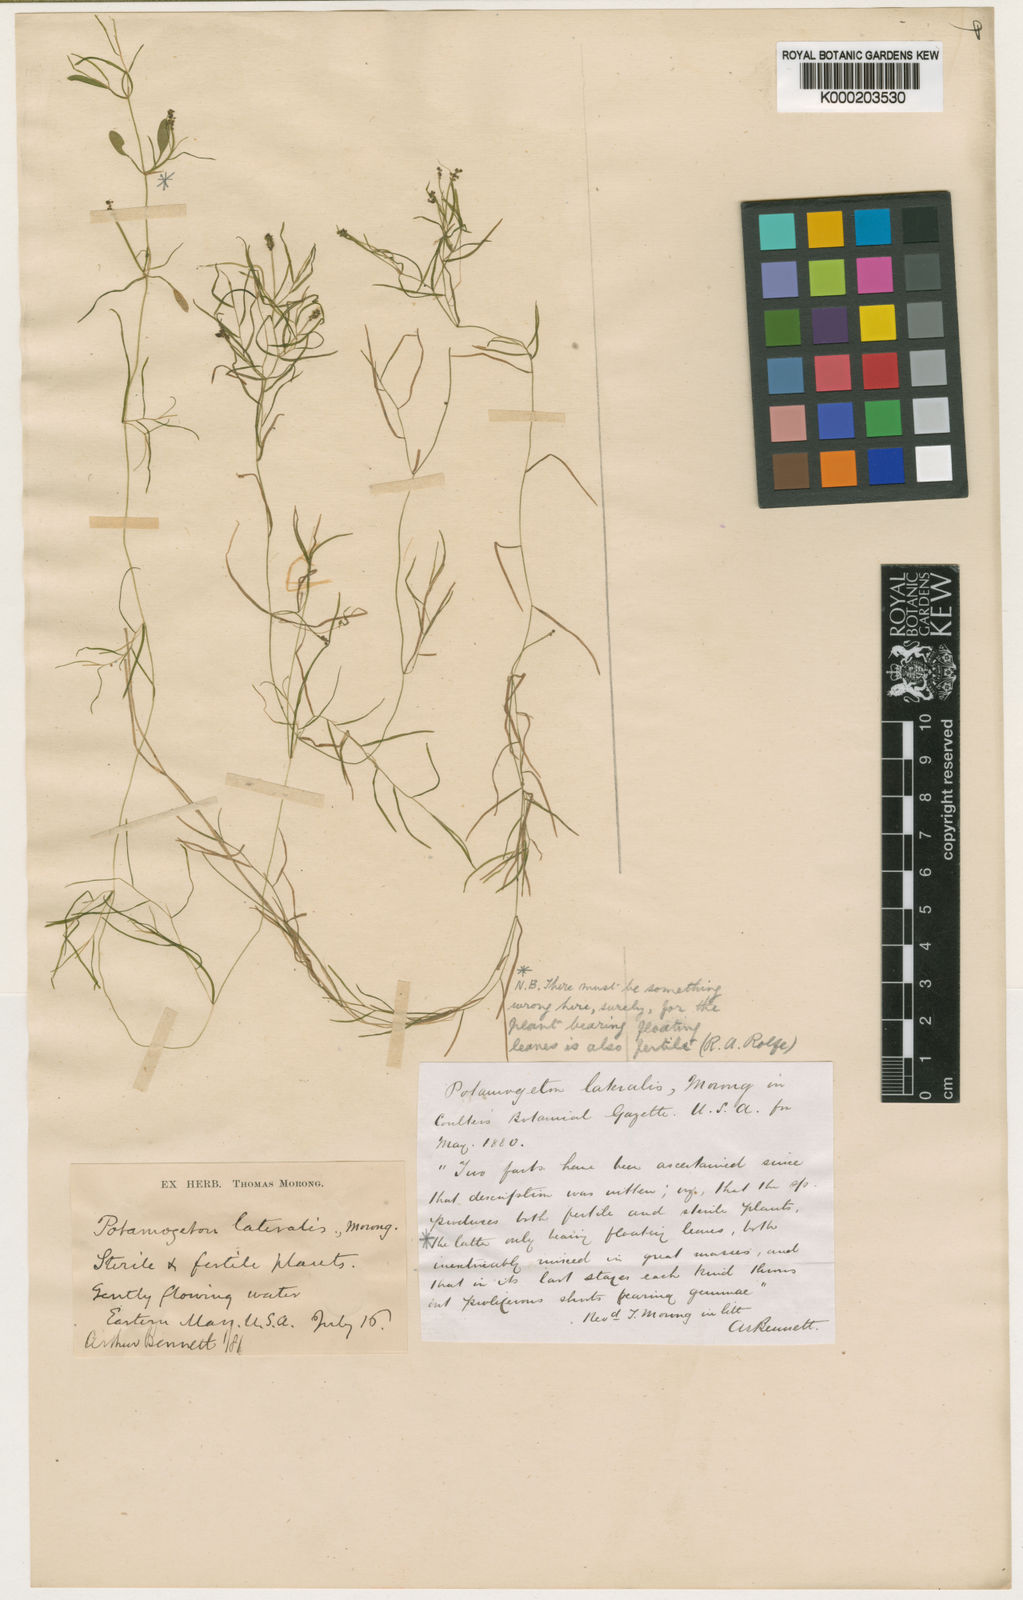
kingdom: Plantae
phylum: Tracheophyta
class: Liliopsida
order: Alismatales
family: Potamogetonaceae
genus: Potamogeton
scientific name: Potamogeton vaseyi
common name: Vasey's pondweed
